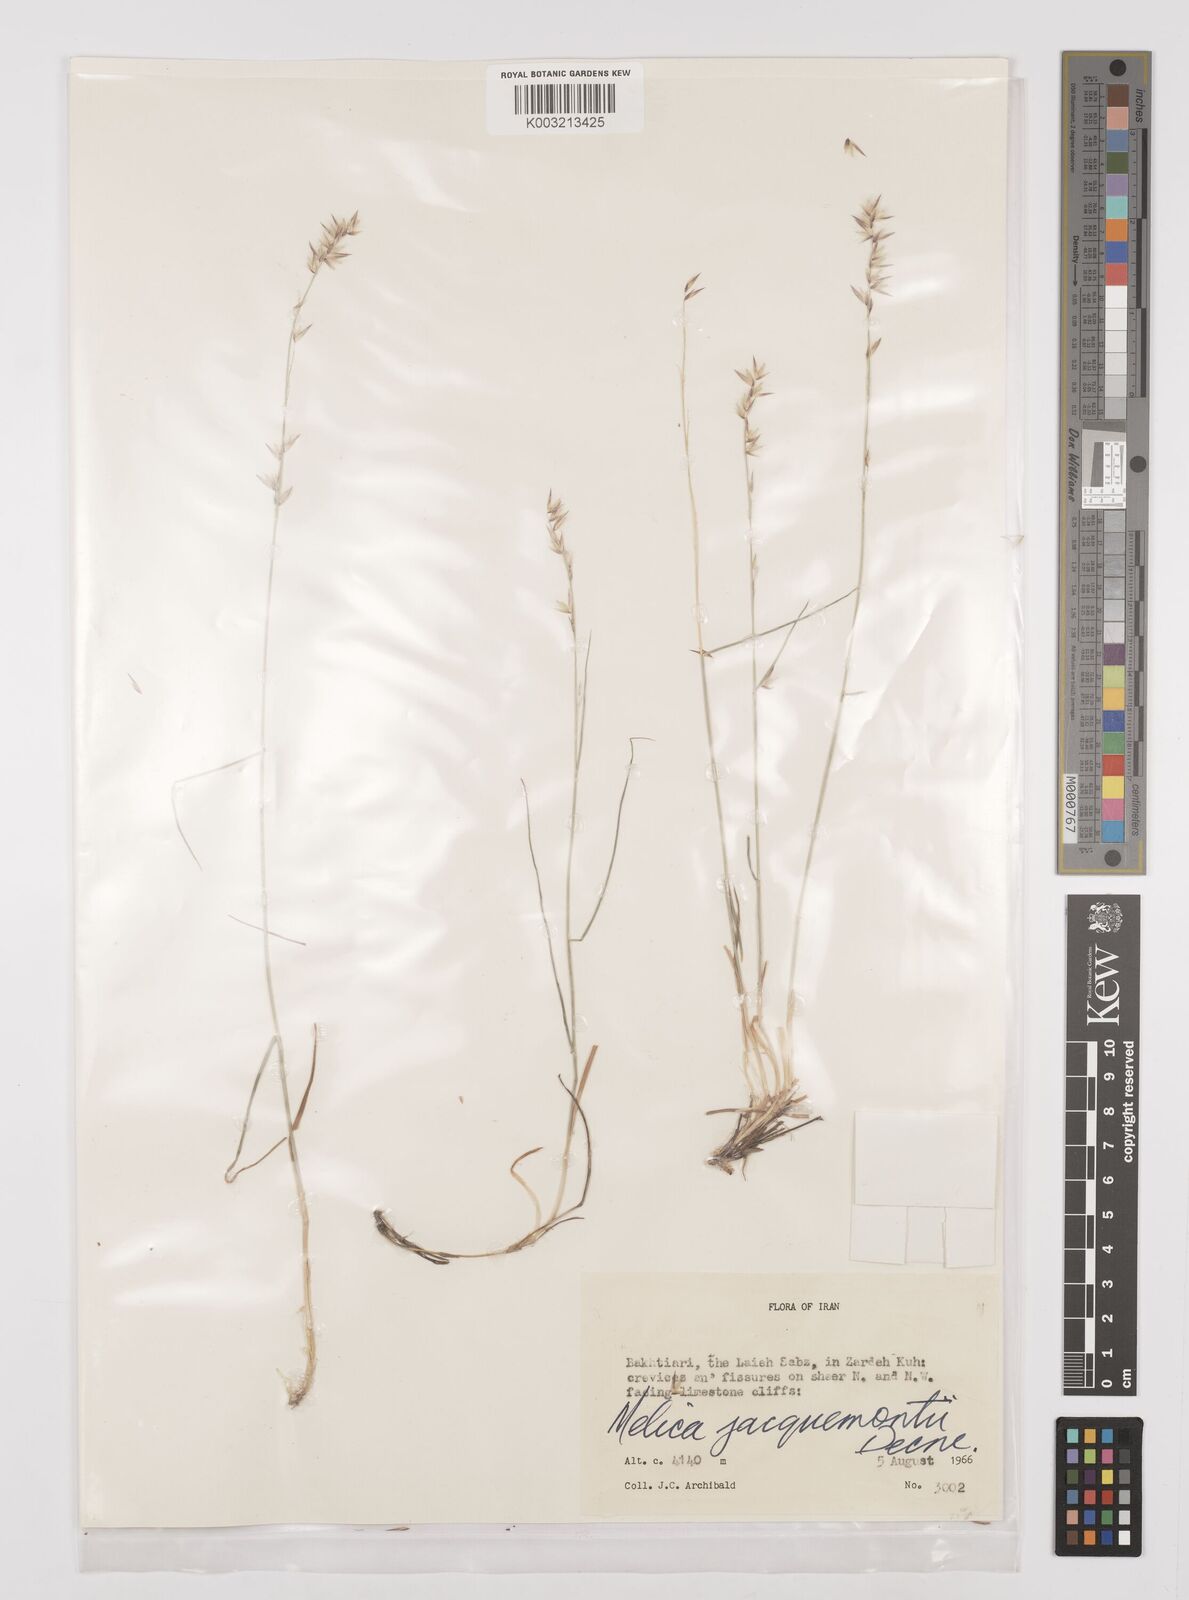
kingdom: Plantae
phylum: Tracheophyta
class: Liliopsida
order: Poales
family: Poaceae
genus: Melica
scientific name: Melica persica
